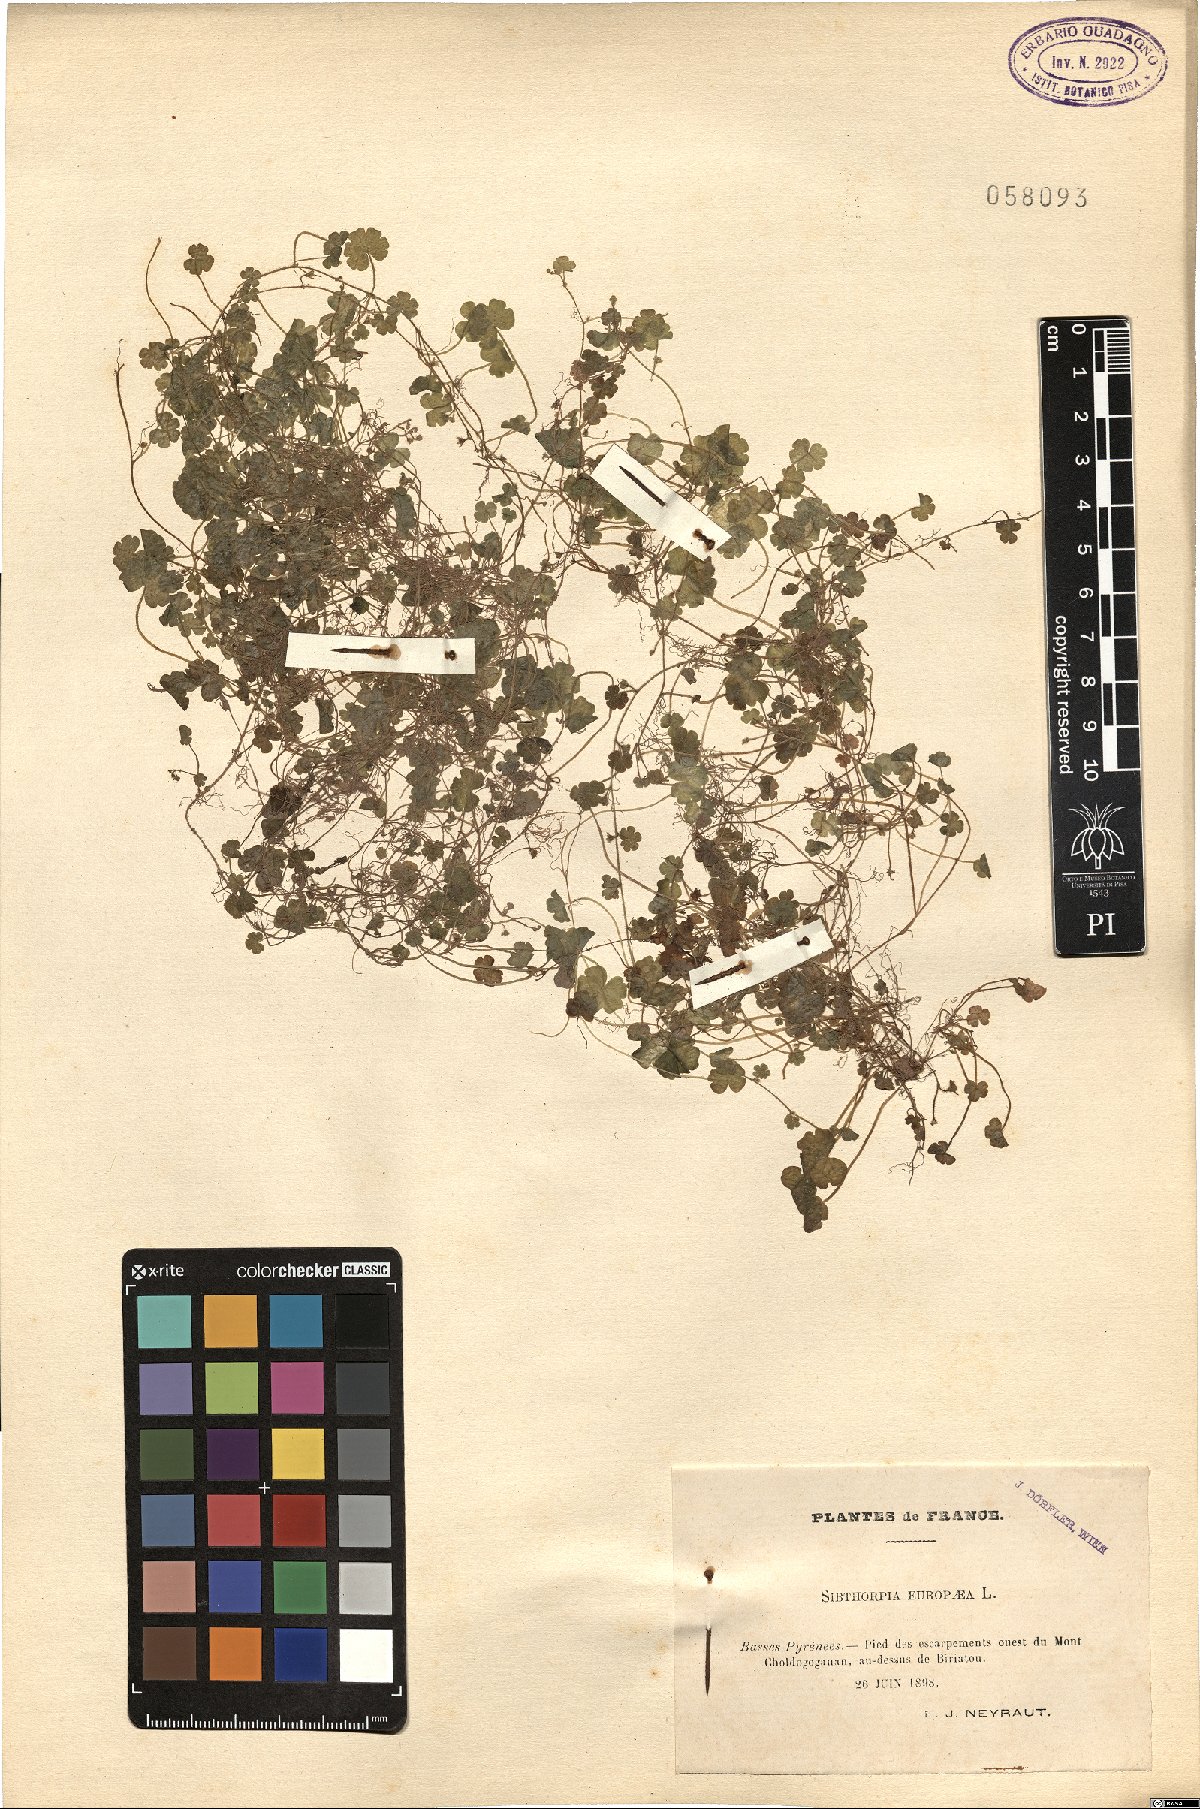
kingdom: Plantae
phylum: Tracheophyta
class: Magnoliopsida
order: Lamiales
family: Plantaginaceae
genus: Sibthorpia
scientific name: Sibthorpia europaea
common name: Cornish moneywort
